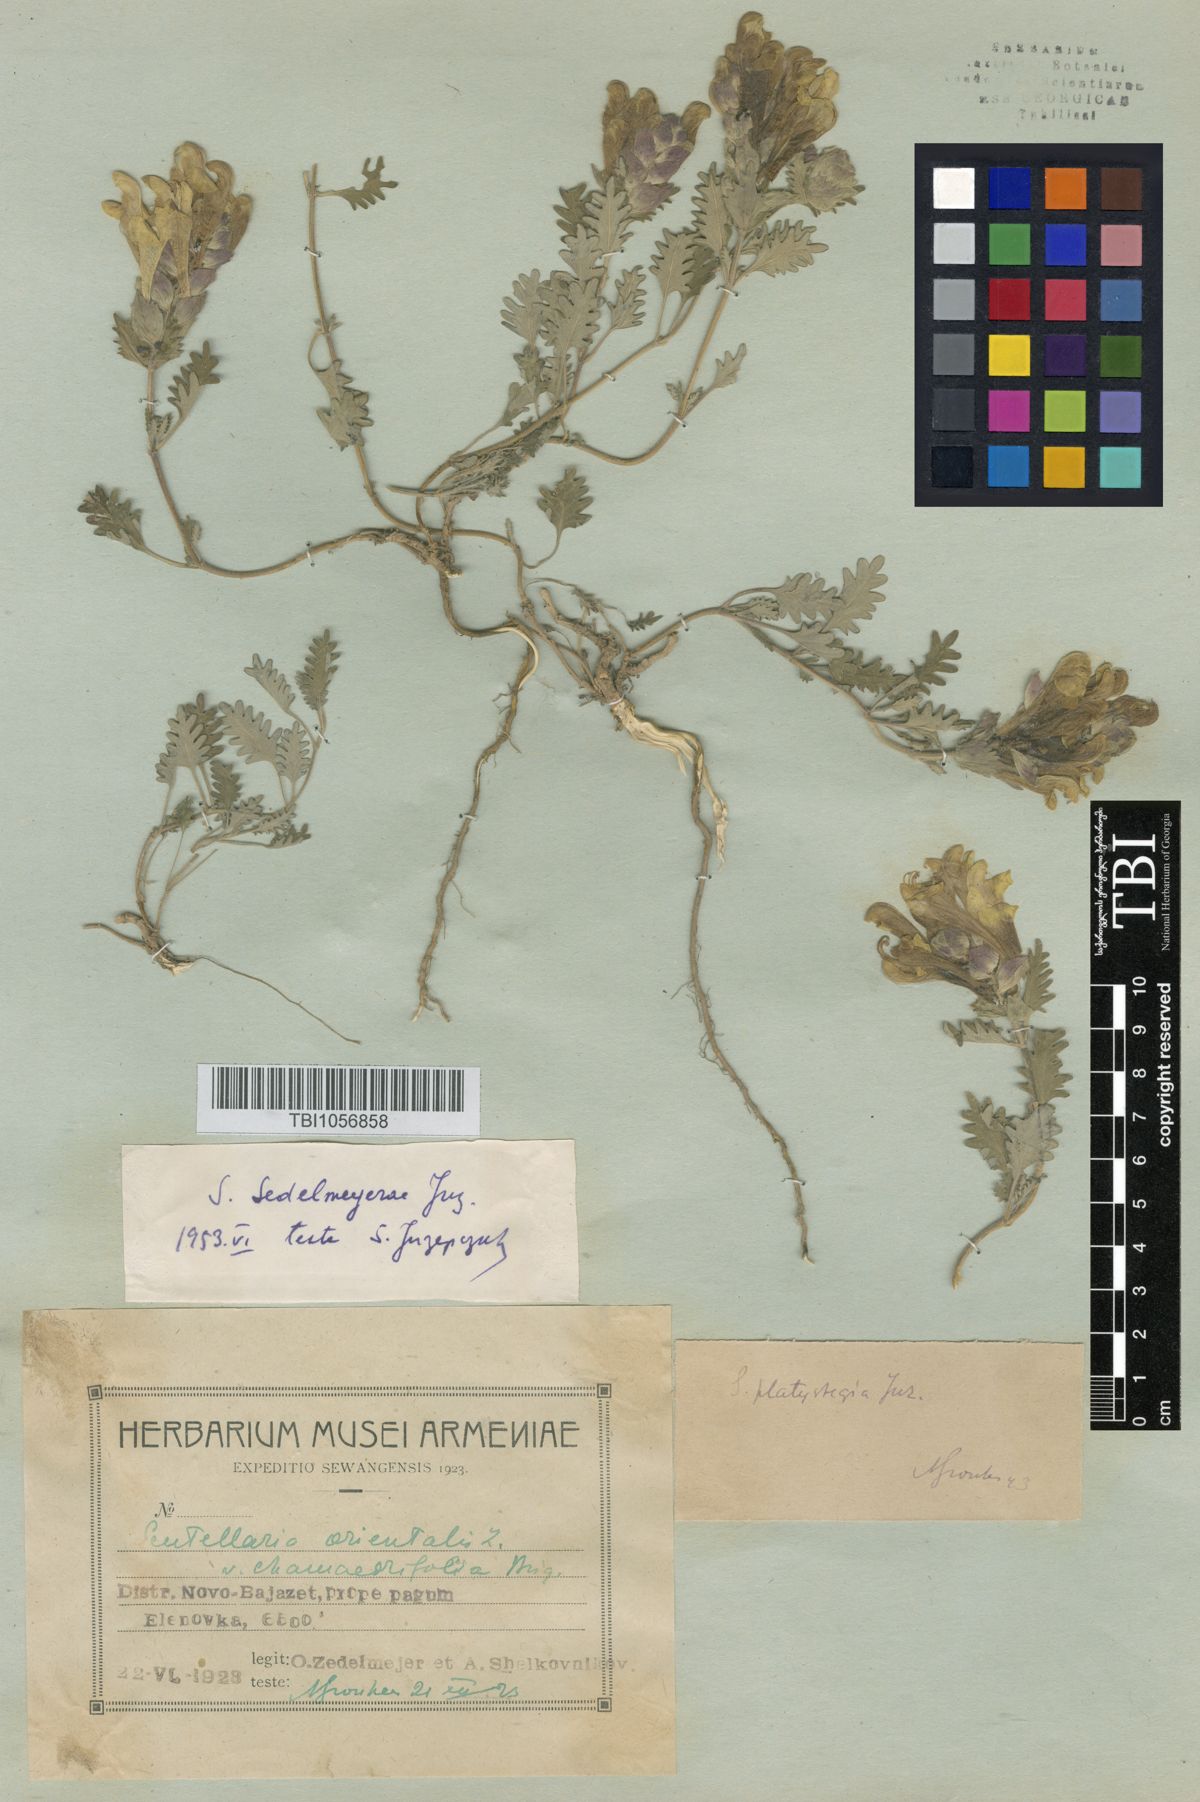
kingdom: Plantae
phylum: Tracheophyta
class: Magnoliopsida
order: Lamiales
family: Lamiaceae
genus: Scutellaria
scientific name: Scutellaria sedelmeyerae
